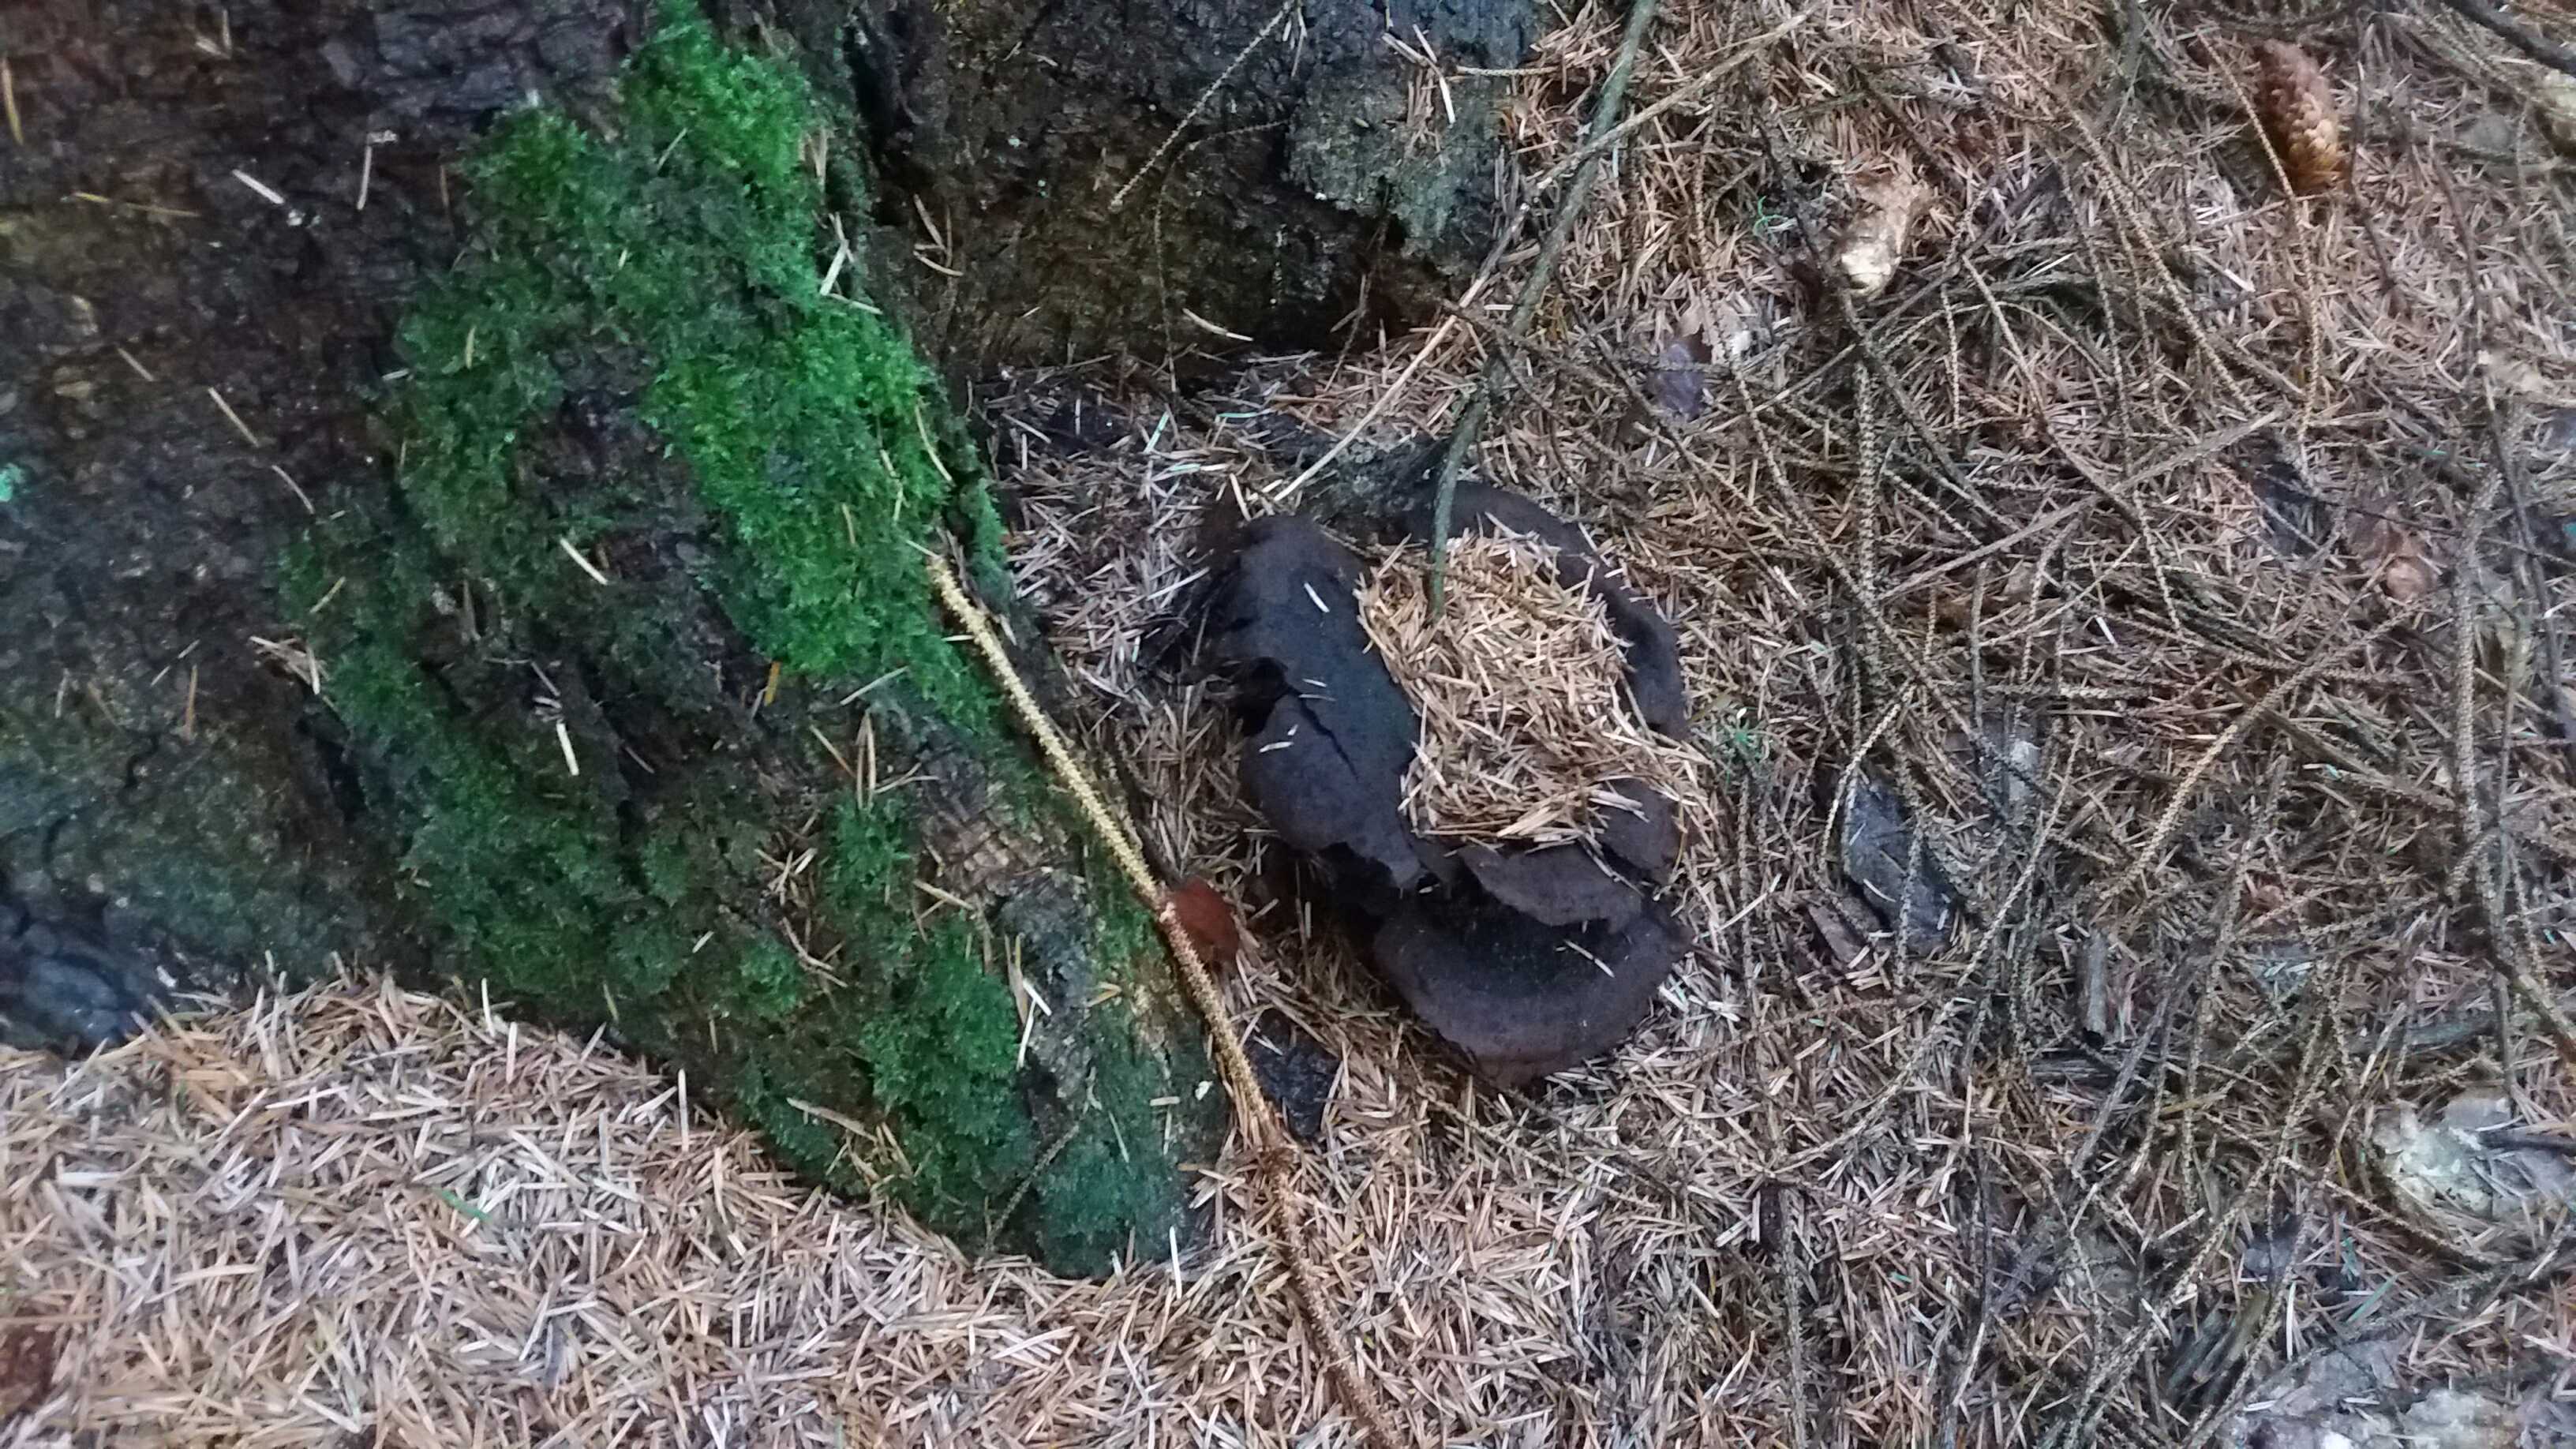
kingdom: Fungi
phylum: Basidiomycota
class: Agaricomycetes
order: Polyporales
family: Laetiporaceae
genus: Phaeolus
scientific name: Phaeolus schweinitzii
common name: brunporesvamp
